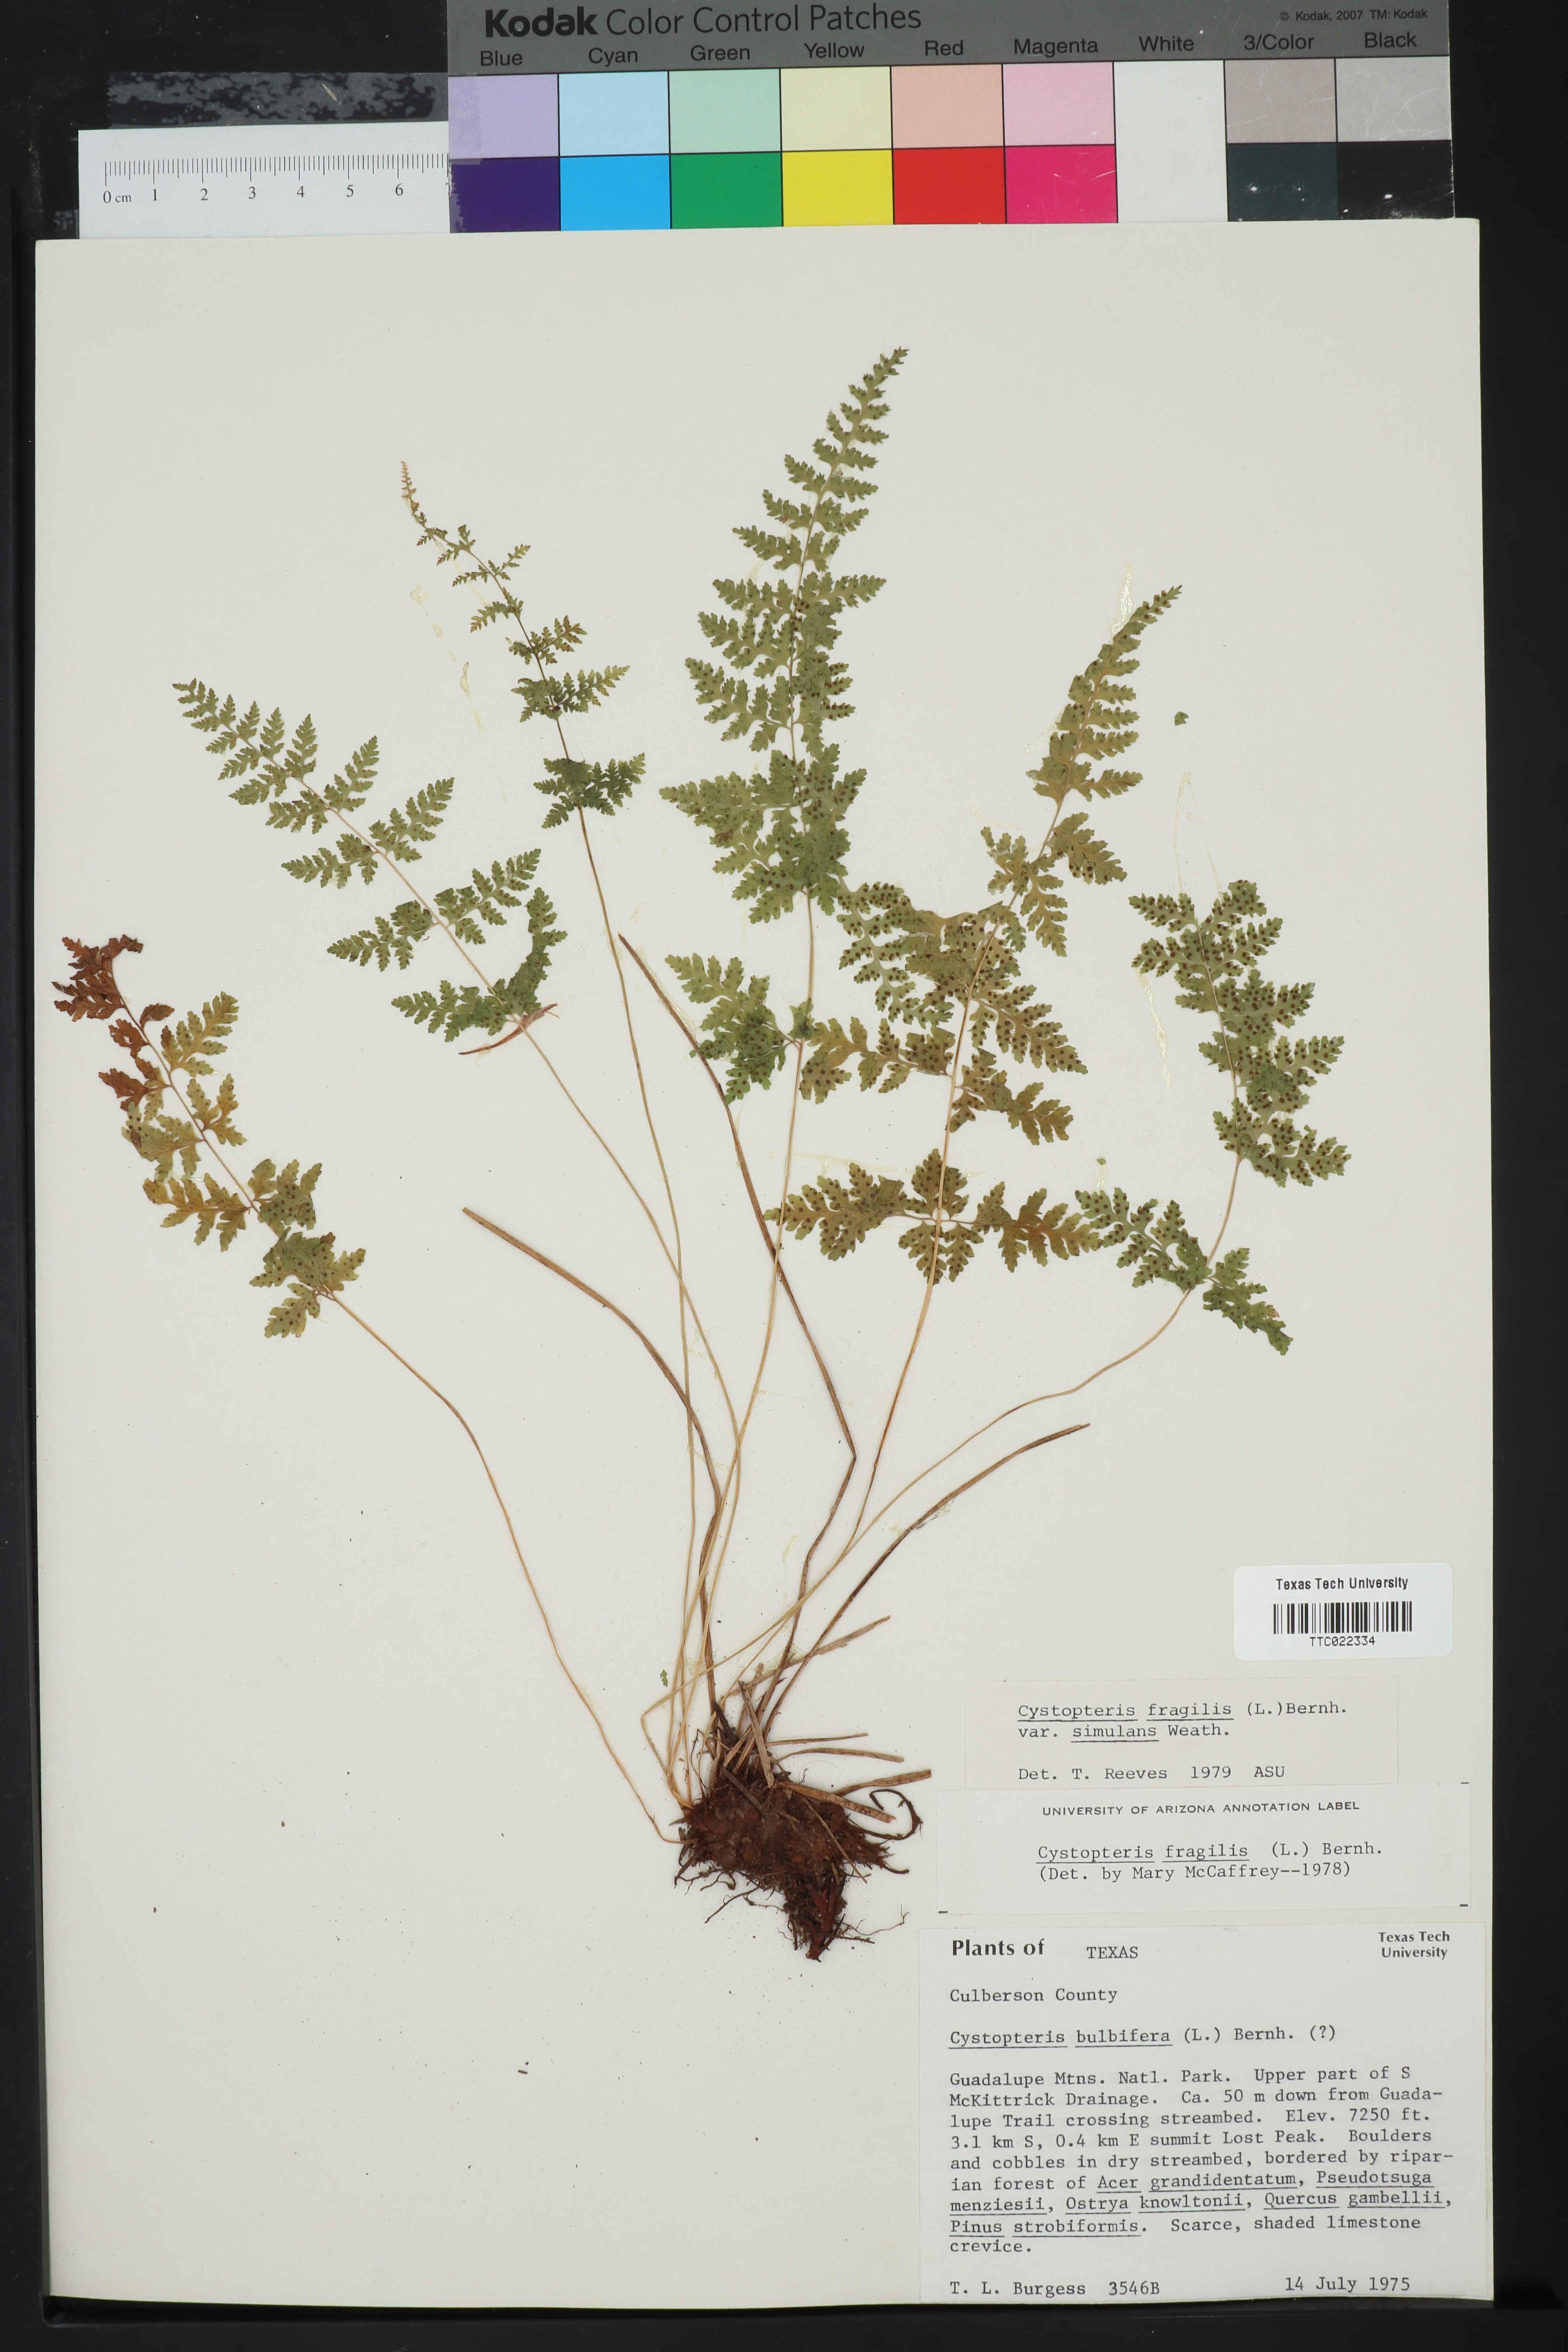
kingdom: Plantae
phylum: Tracheophyta
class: Polypodiopsida
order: Polypodiales
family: Cystopteridaceae
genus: Cystopteris
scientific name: Cystopteris bulbifera
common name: Bulblet bladder fern
